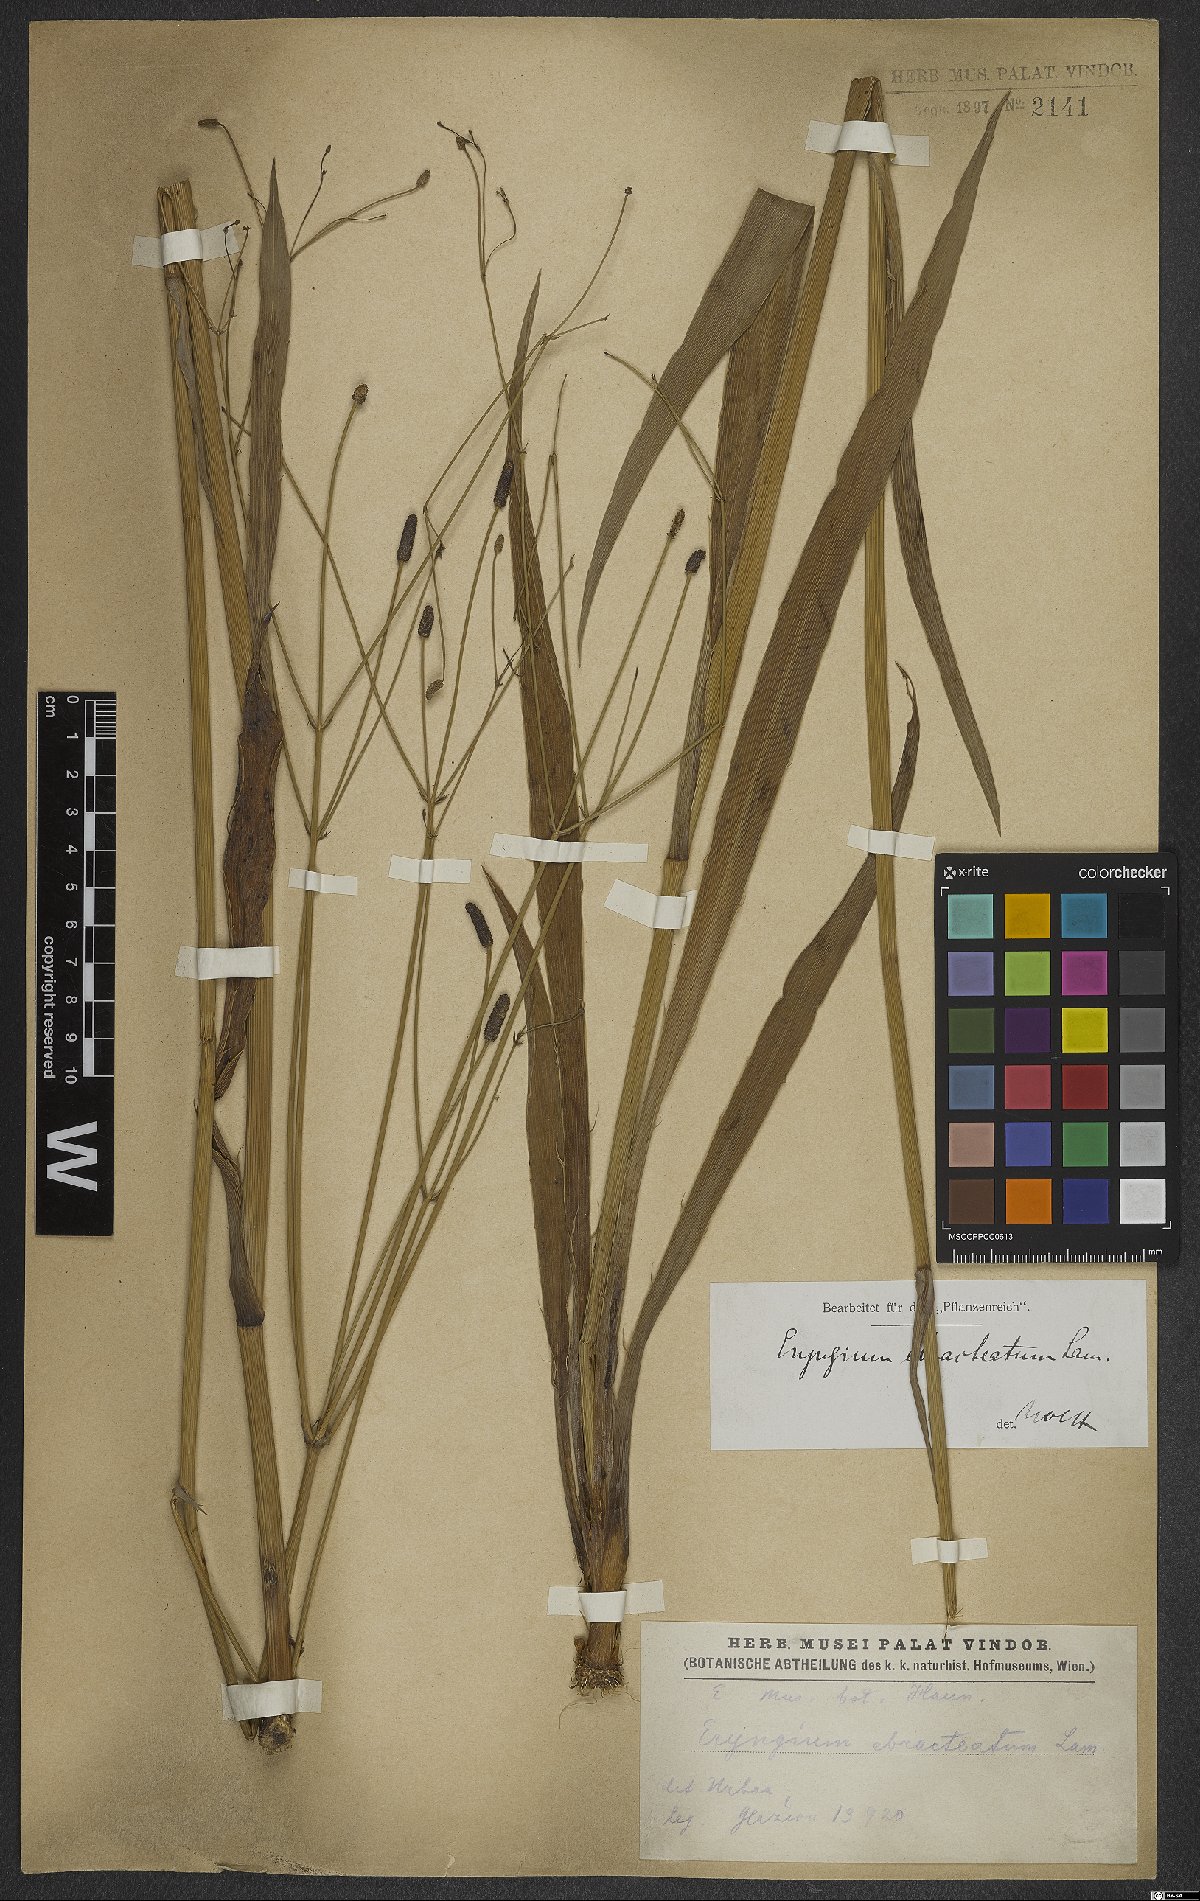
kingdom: Plantae
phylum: Tracheophyta
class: Magnoliopsida
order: Apiales
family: Apiaceae
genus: Eryngium
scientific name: Eryngium ebracteatum
